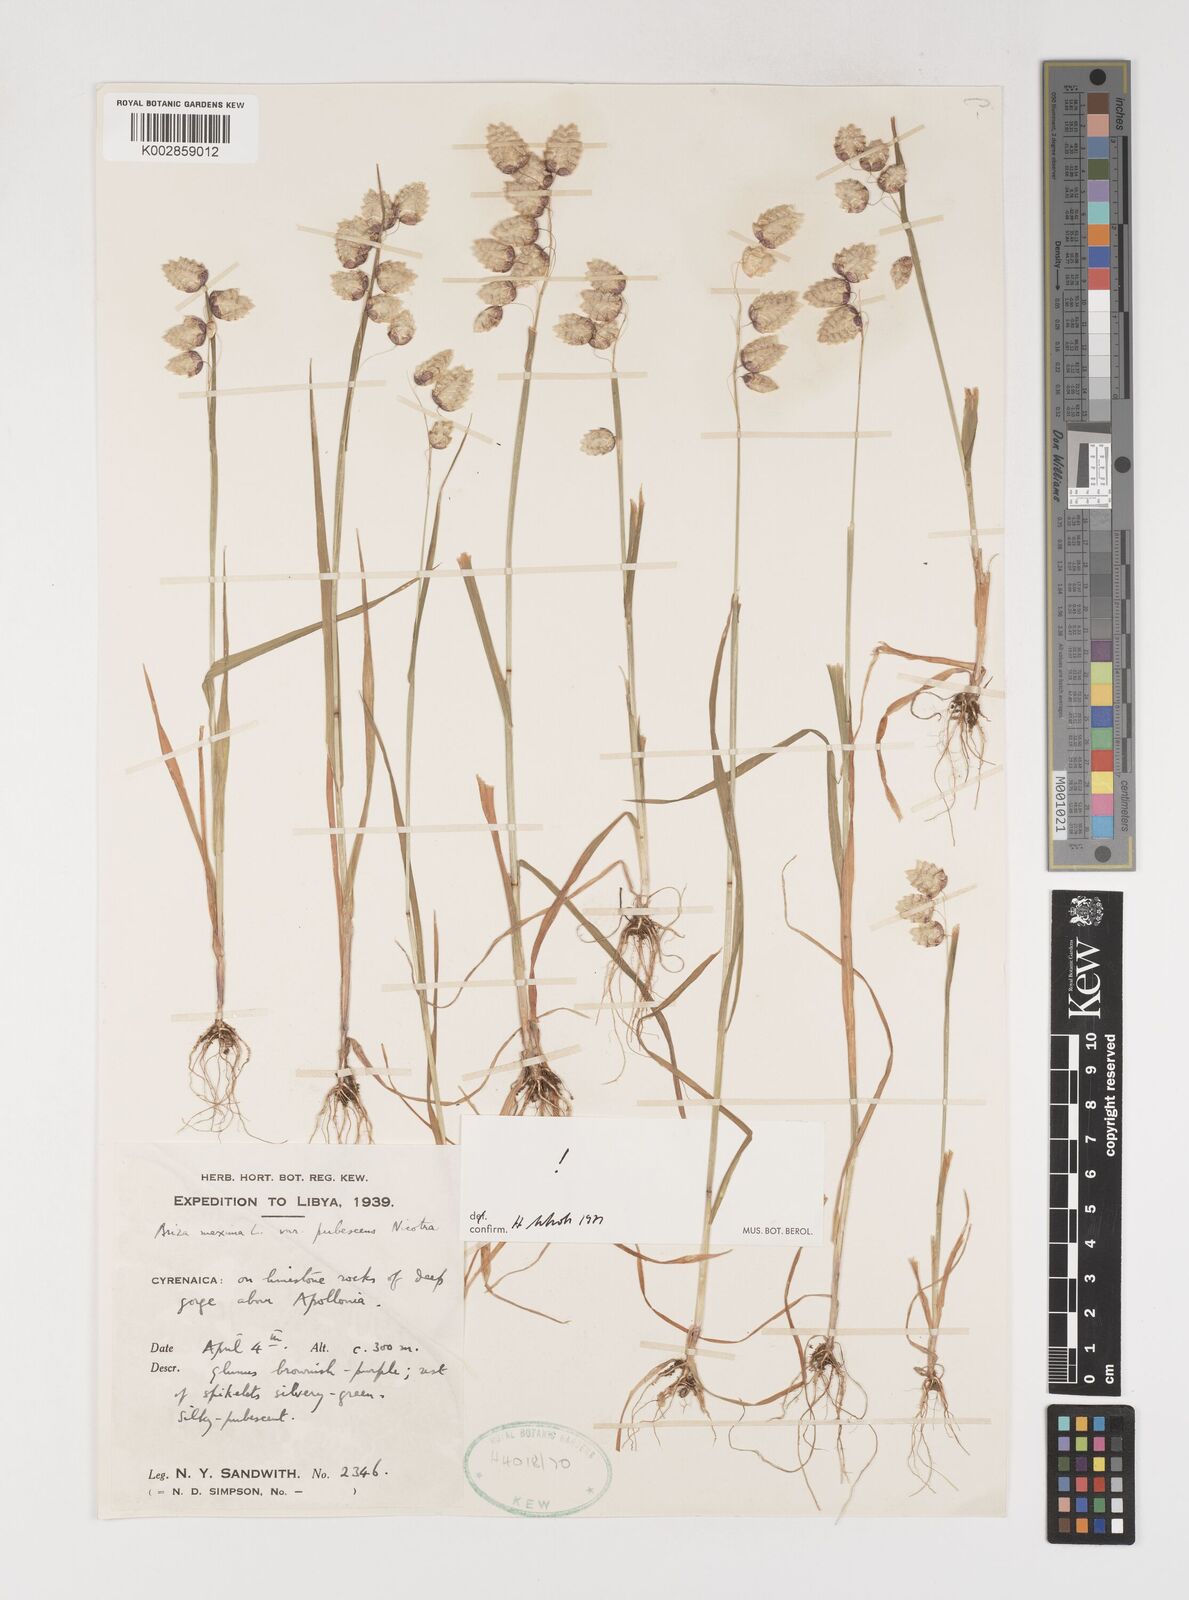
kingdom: Plantae
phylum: Tracheophyta
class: Liliopsida
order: Poales
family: Poaceae
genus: Briza
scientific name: Briza maxima
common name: Big quakinggrass
